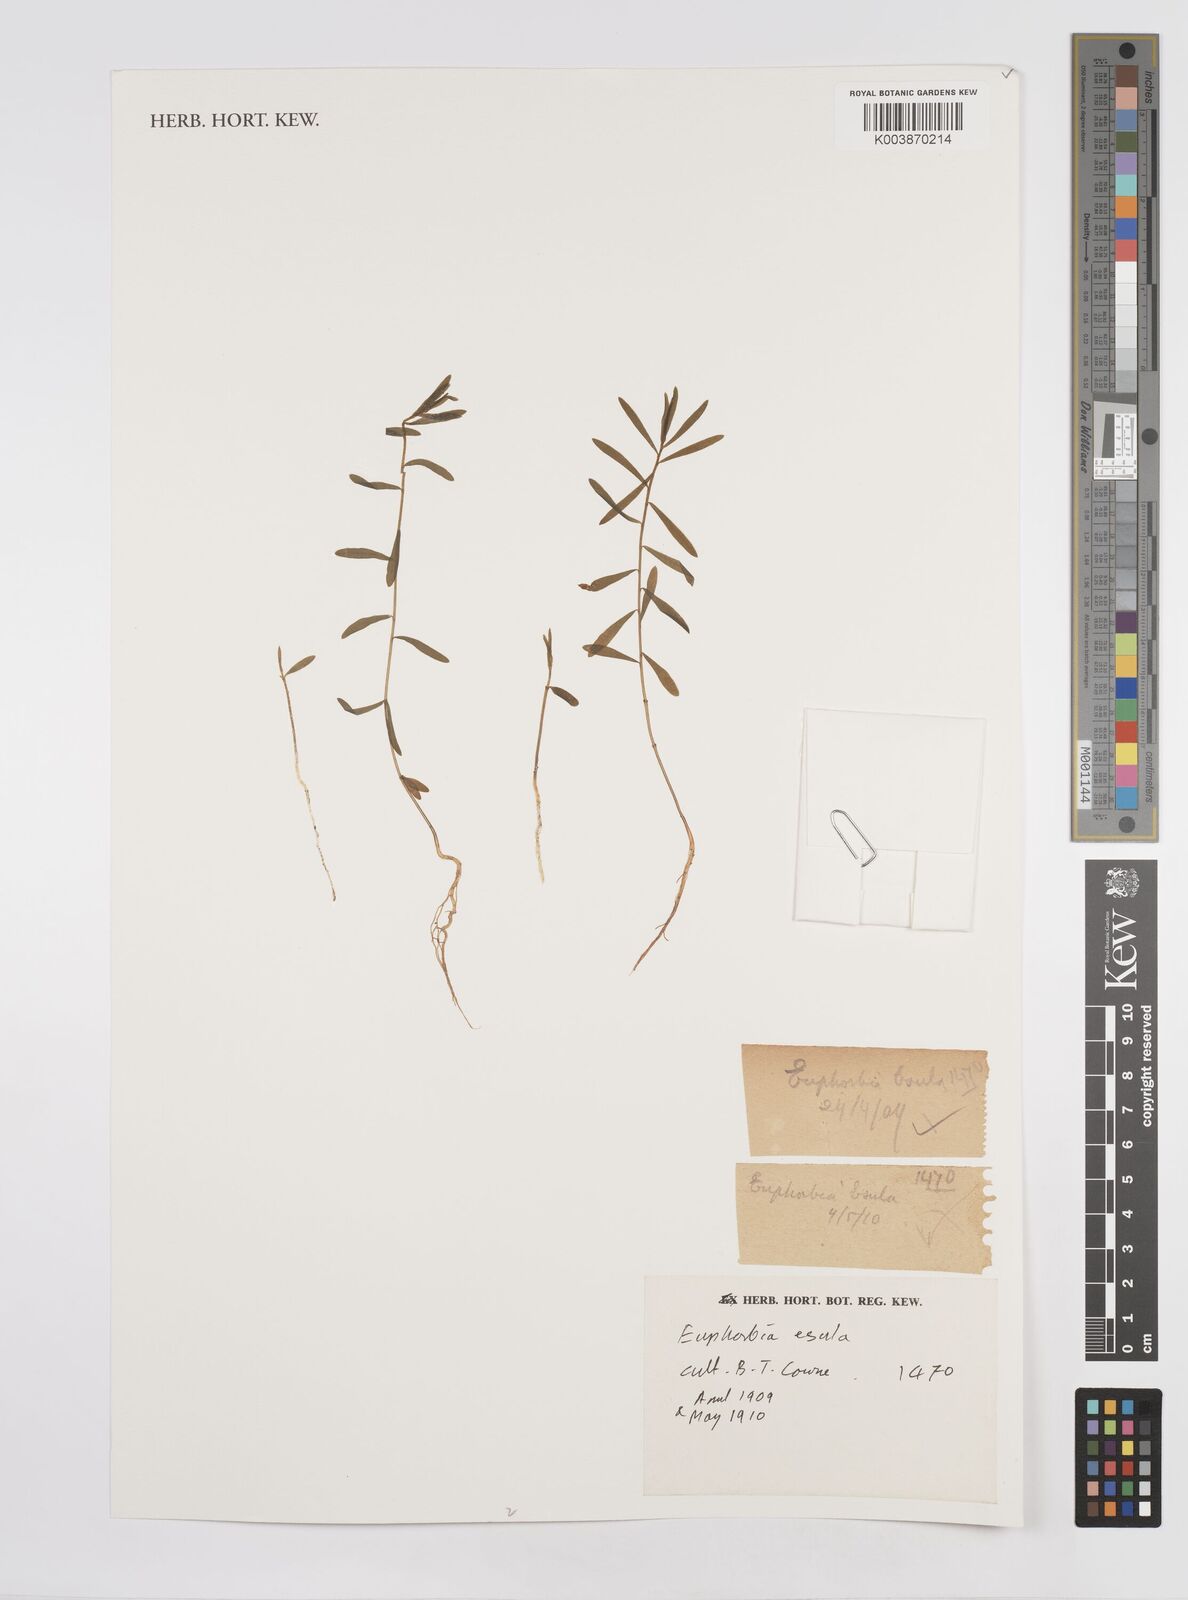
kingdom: Plantae
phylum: Tracheophyta
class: Magnoliopsida
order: Malpighiales
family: Euphorbiaceae
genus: Euphorbia
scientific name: Euphorbia esula
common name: Leafy spurge
